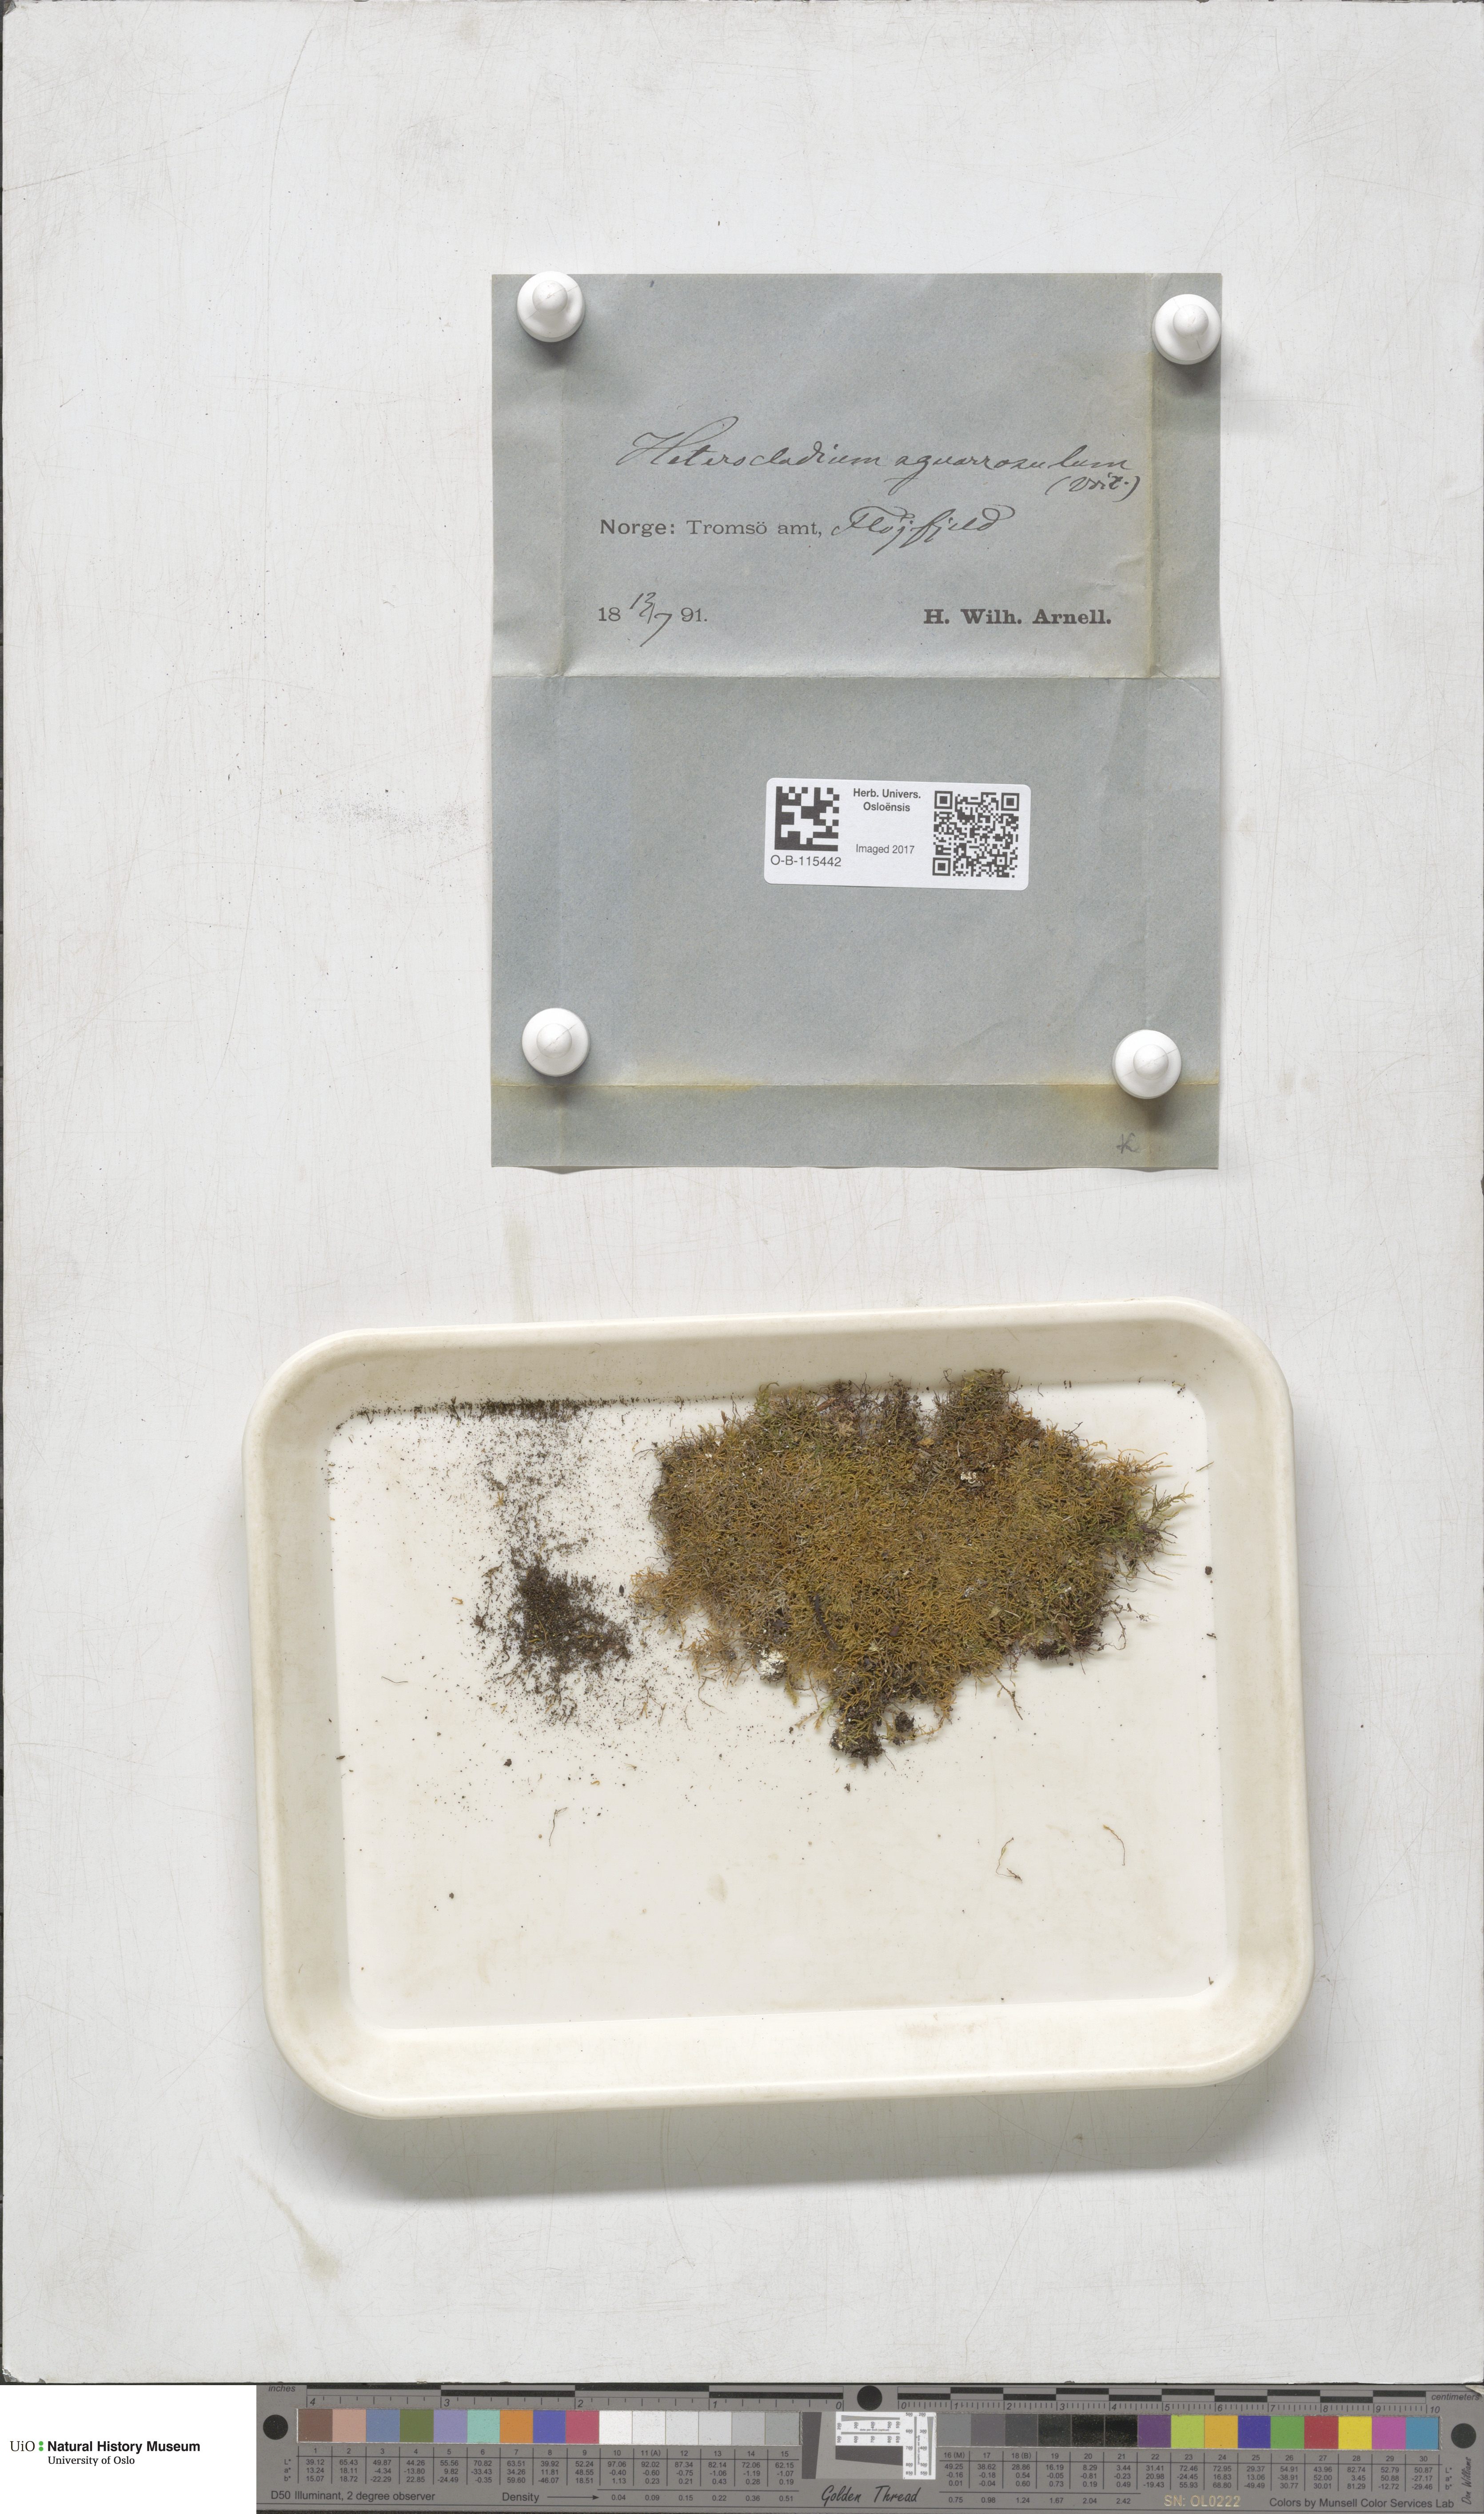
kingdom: Plantae
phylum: Bryophyta
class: Bryopsida
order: Hypnales
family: Heterocladiellaceae
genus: Heterocladiella
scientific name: Heterocladiella dimorpha
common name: Dimorphous tamarisk-moss
